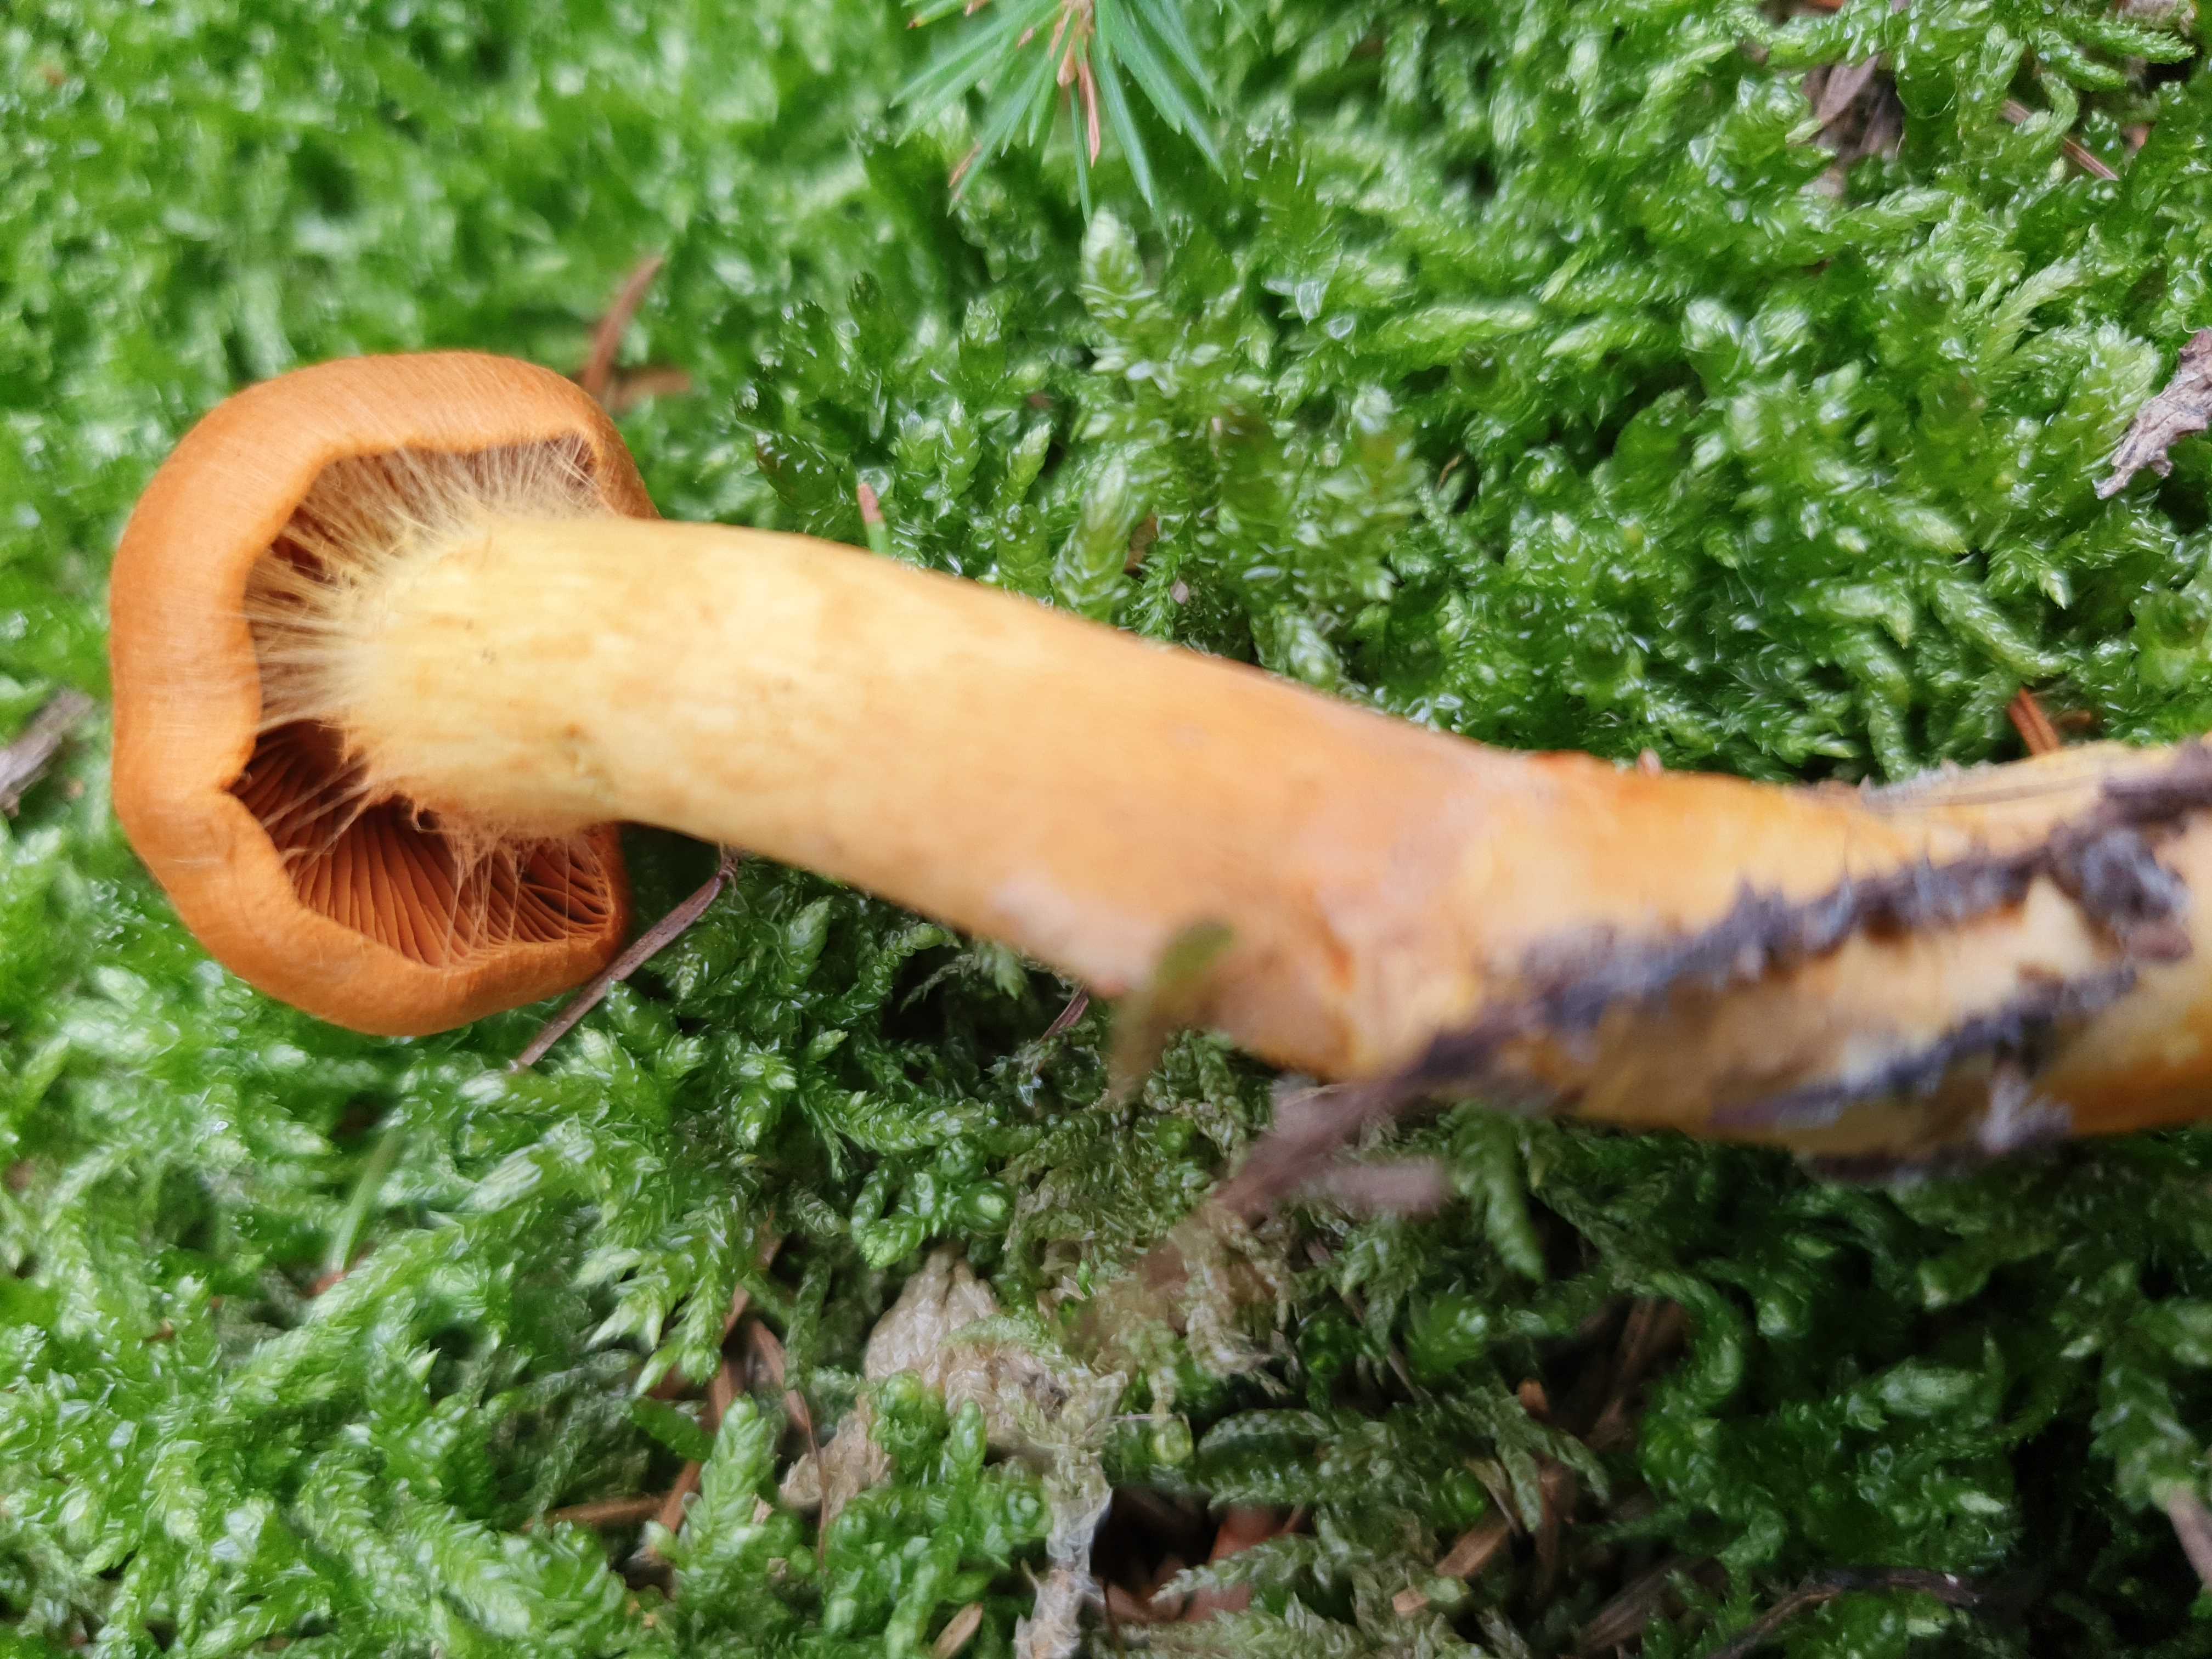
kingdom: Fungi
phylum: Basidiomycota
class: Agaricomycetes
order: Agaricales
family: Cortinariaceae
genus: Cortinarius
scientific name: Cortinarius
